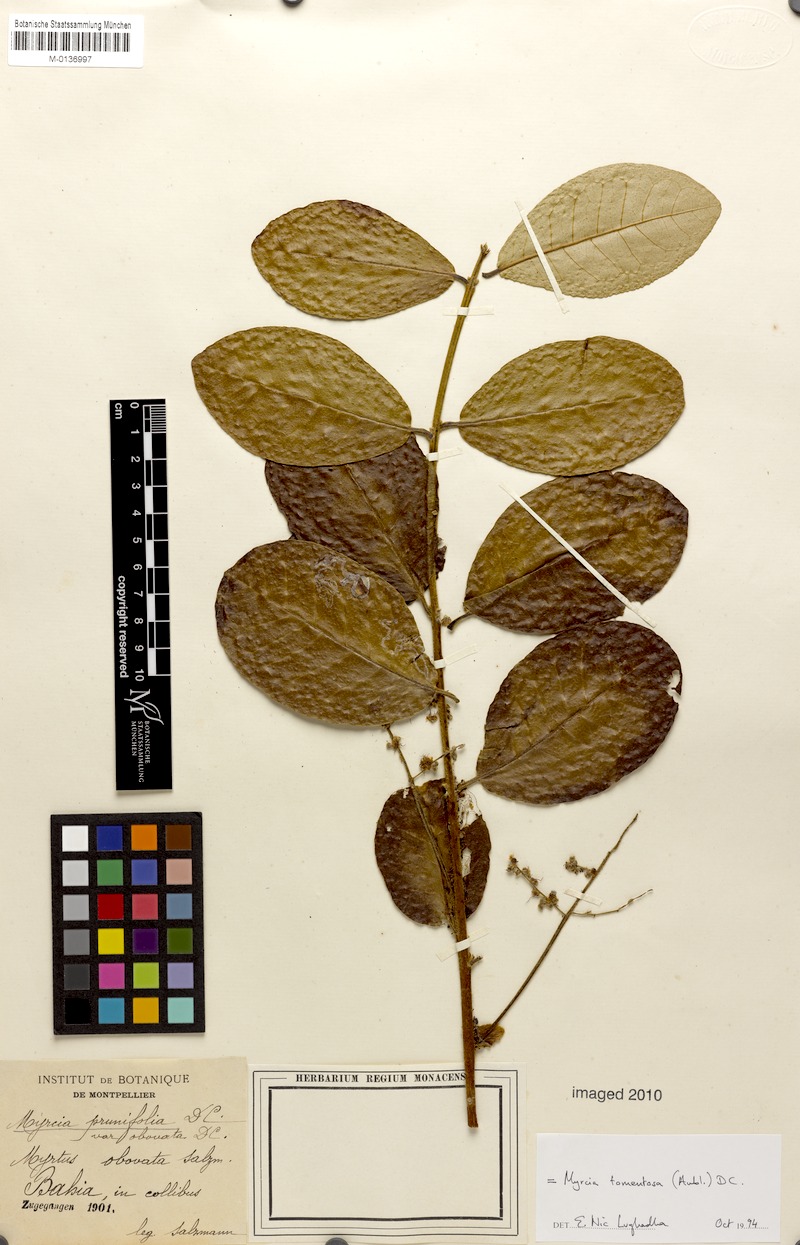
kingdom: Plantae
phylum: Tracheophyta
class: Magnoliopsida
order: Myrtales
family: Myrtaceae
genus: Myrcia
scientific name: Myrcia tomentosa
